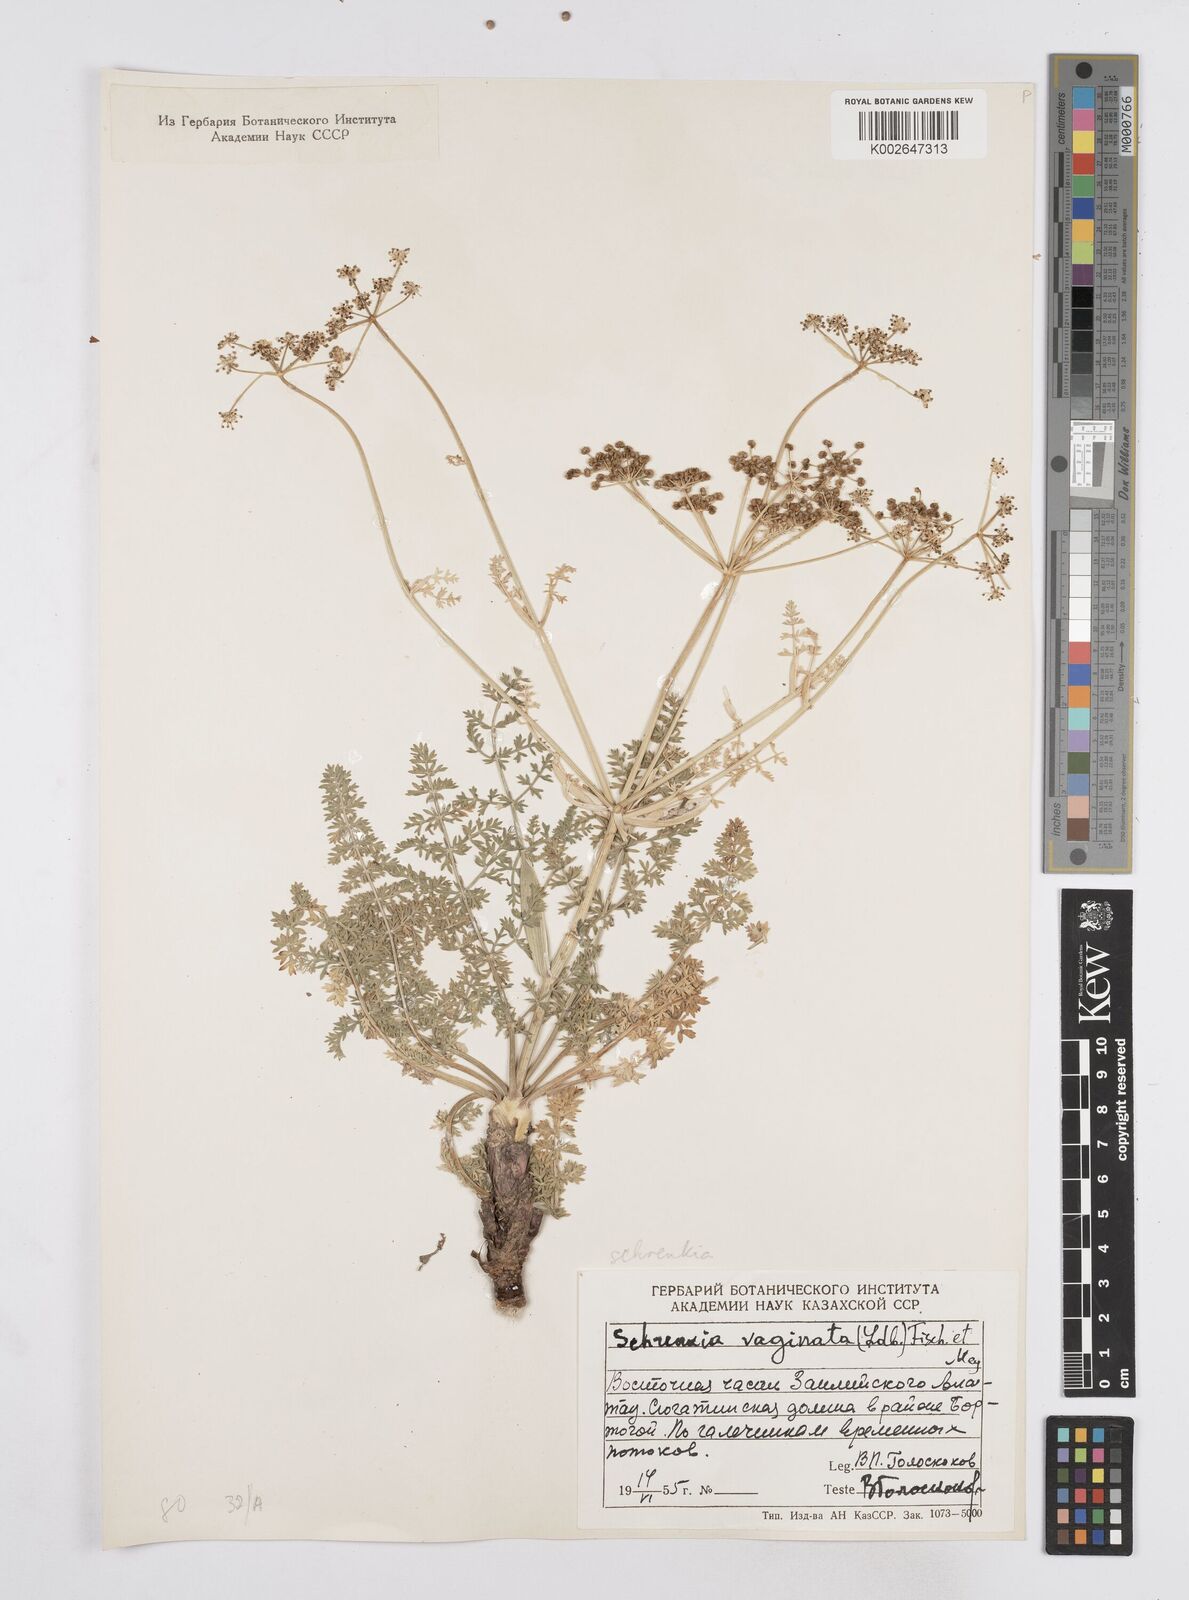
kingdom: Plantae
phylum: Tracheophyta
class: Magnoliopsida
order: Apiales
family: Apiaceae
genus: Schrenkia
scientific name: Schrenkia vaginata
